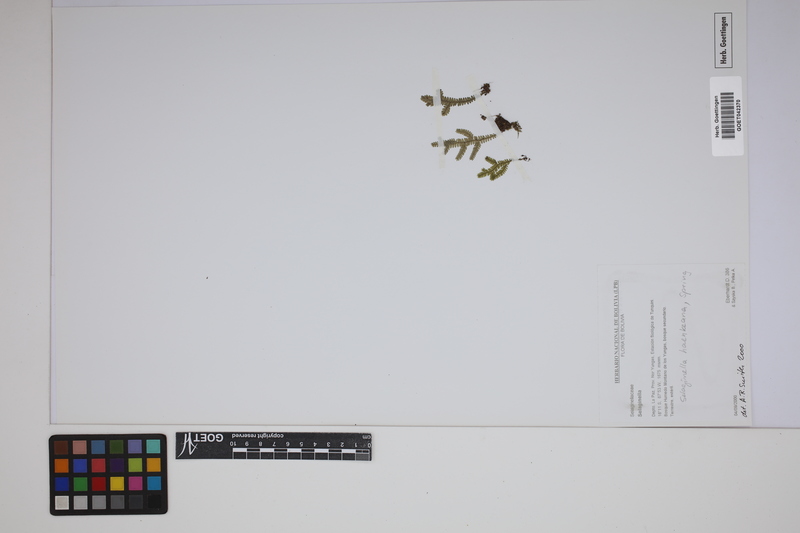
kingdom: Plantae
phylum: Tracheophyta
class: Lycopodiopsida
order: Selaginellales
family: Selaginellaceae
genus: Selaginella
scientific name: Selaginella haenkeana
